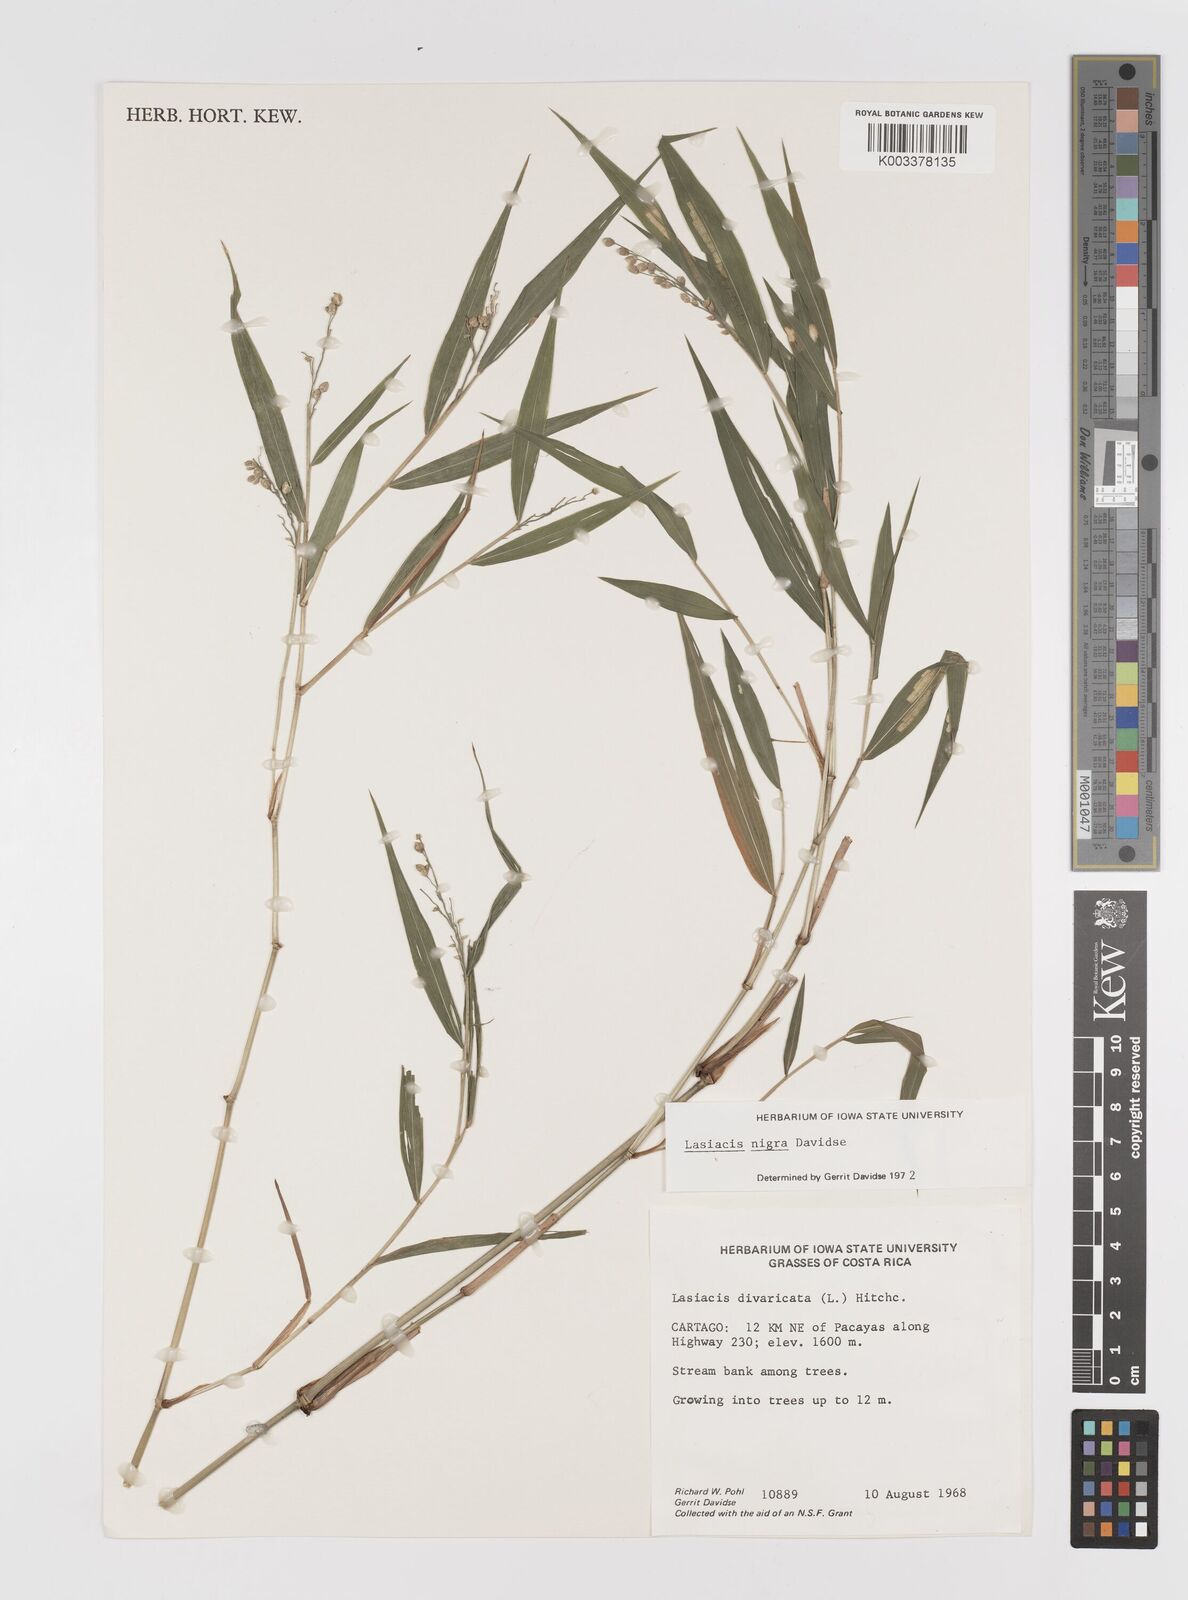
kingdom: Plantae
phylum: Tracheophyta
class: Liliopsida
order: Poales
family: Poaceae
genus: Lasiacis
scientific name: Lasiacis nigra
